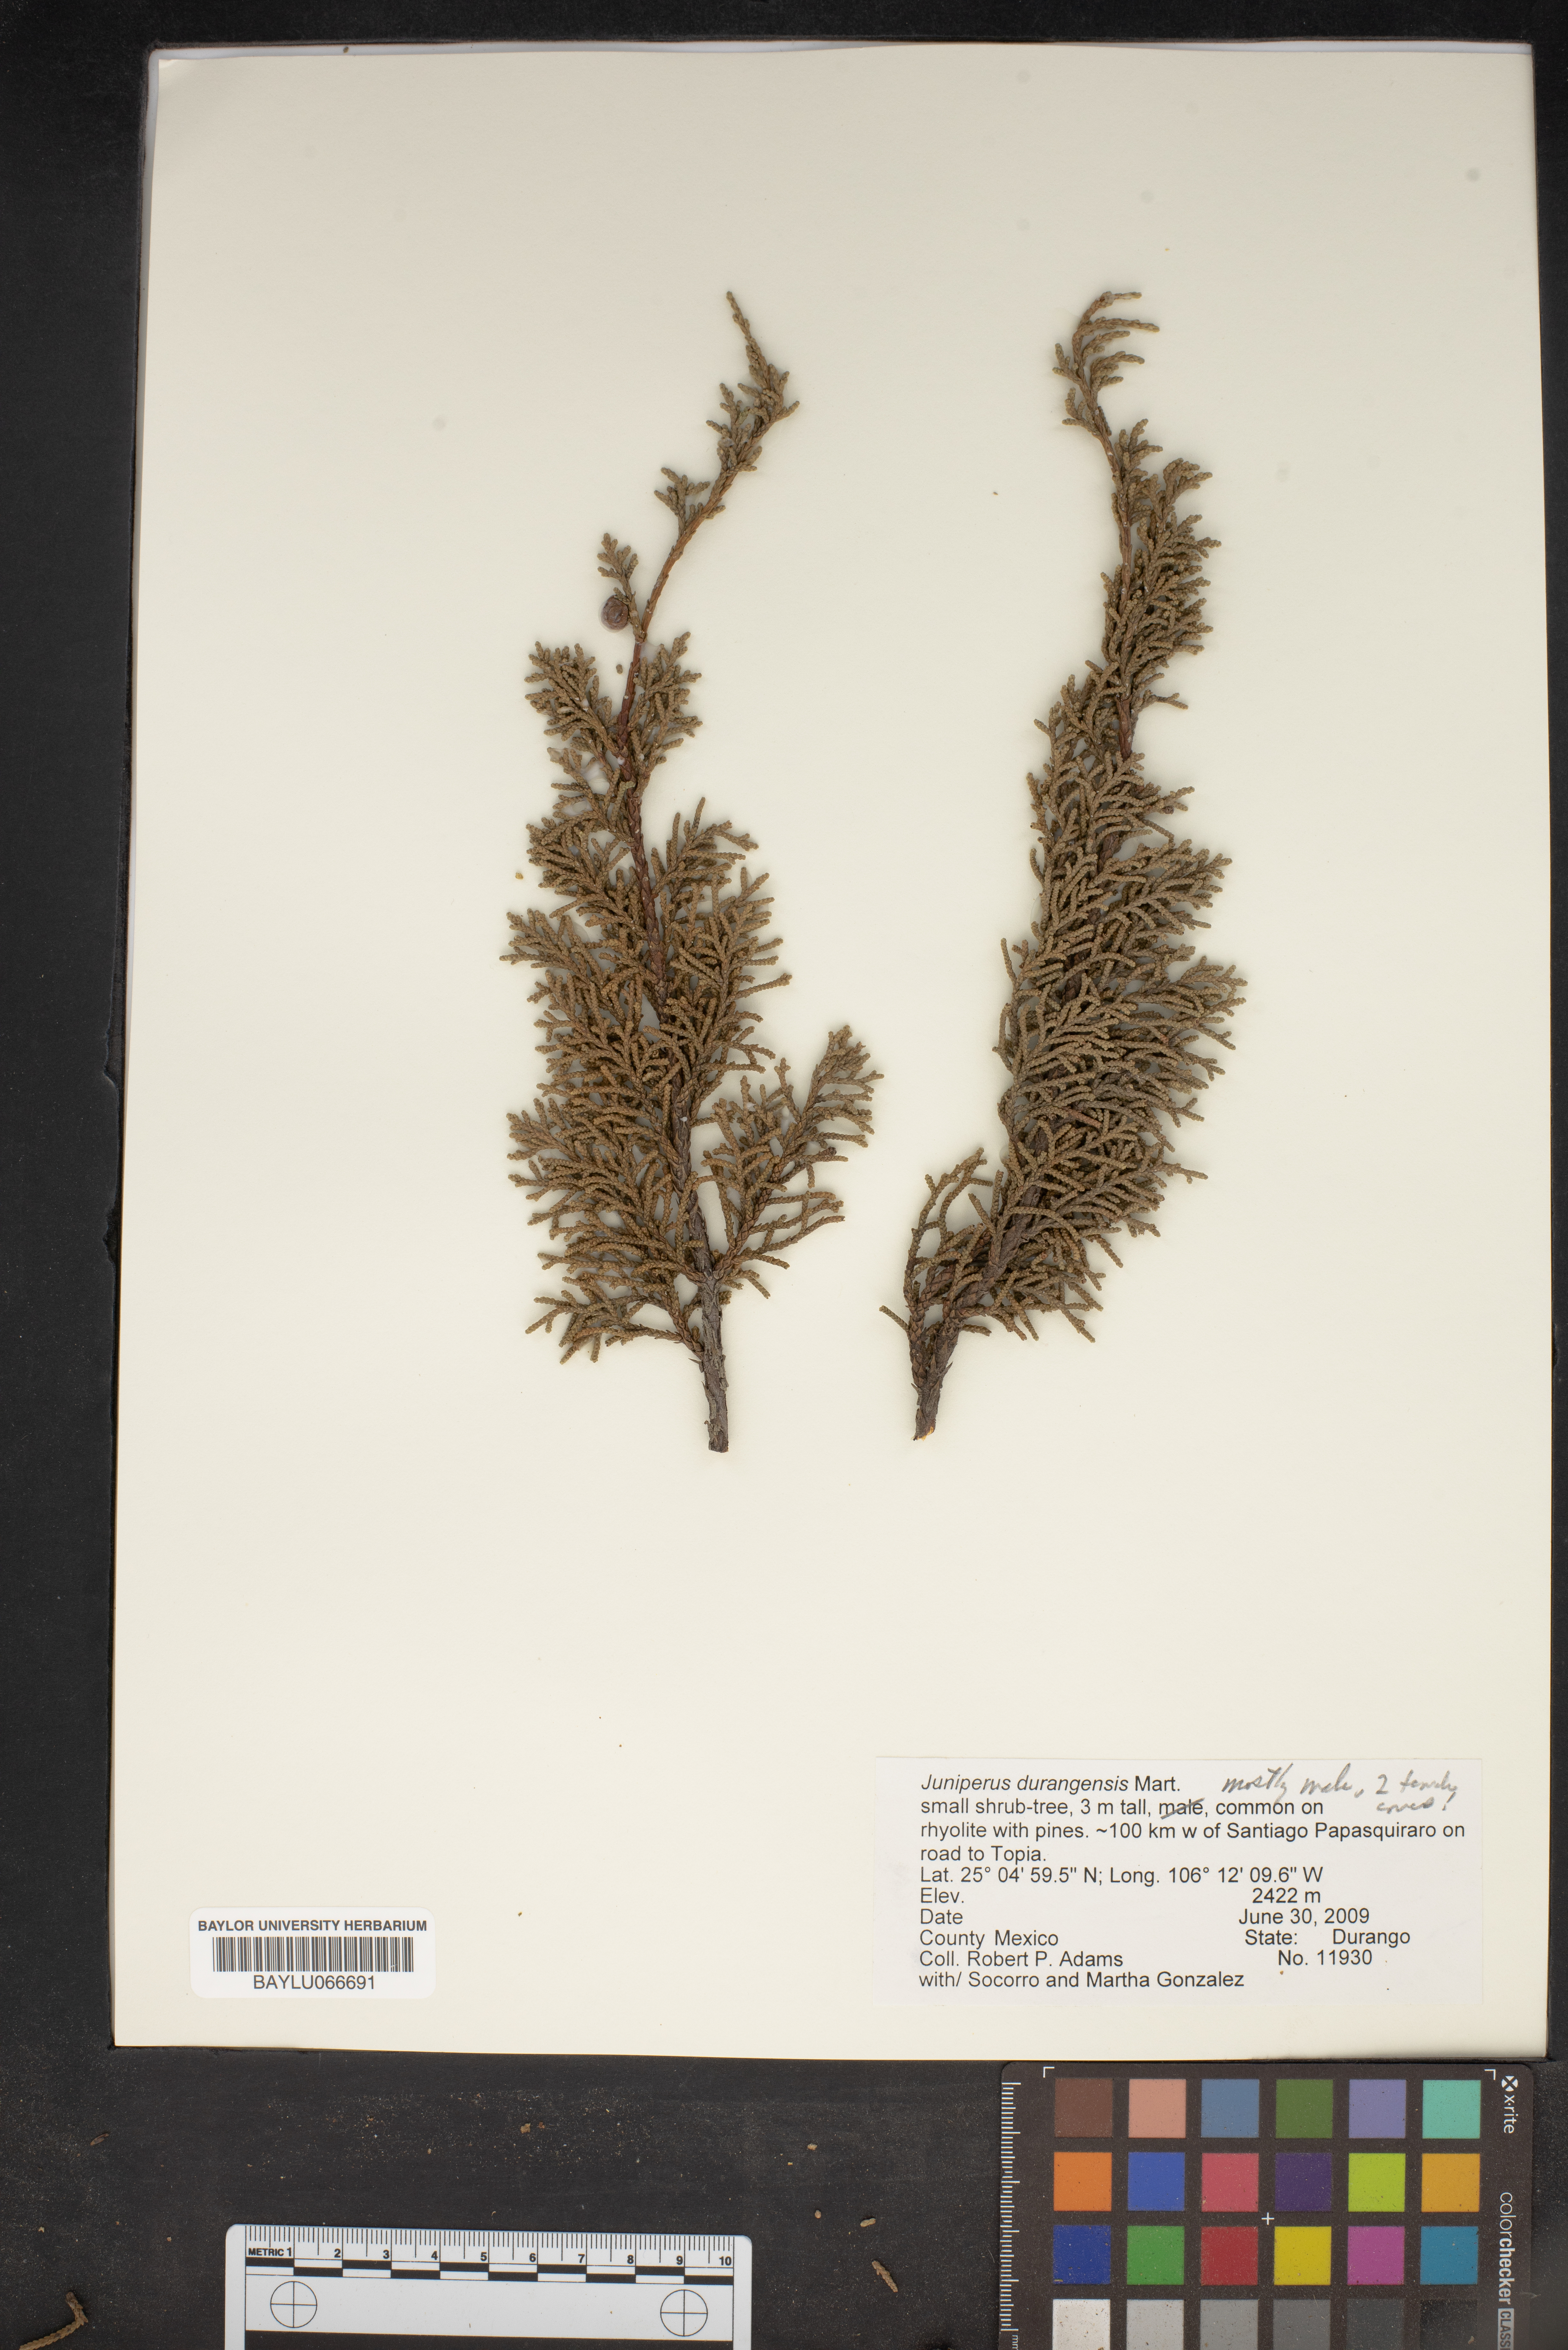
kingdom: Plantae
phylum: Tracheophyta
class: Pinopsida
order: Pinales
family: Cupressaceae
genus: Juniperus
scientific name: Juniperus durangensis
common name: Durango juniper
